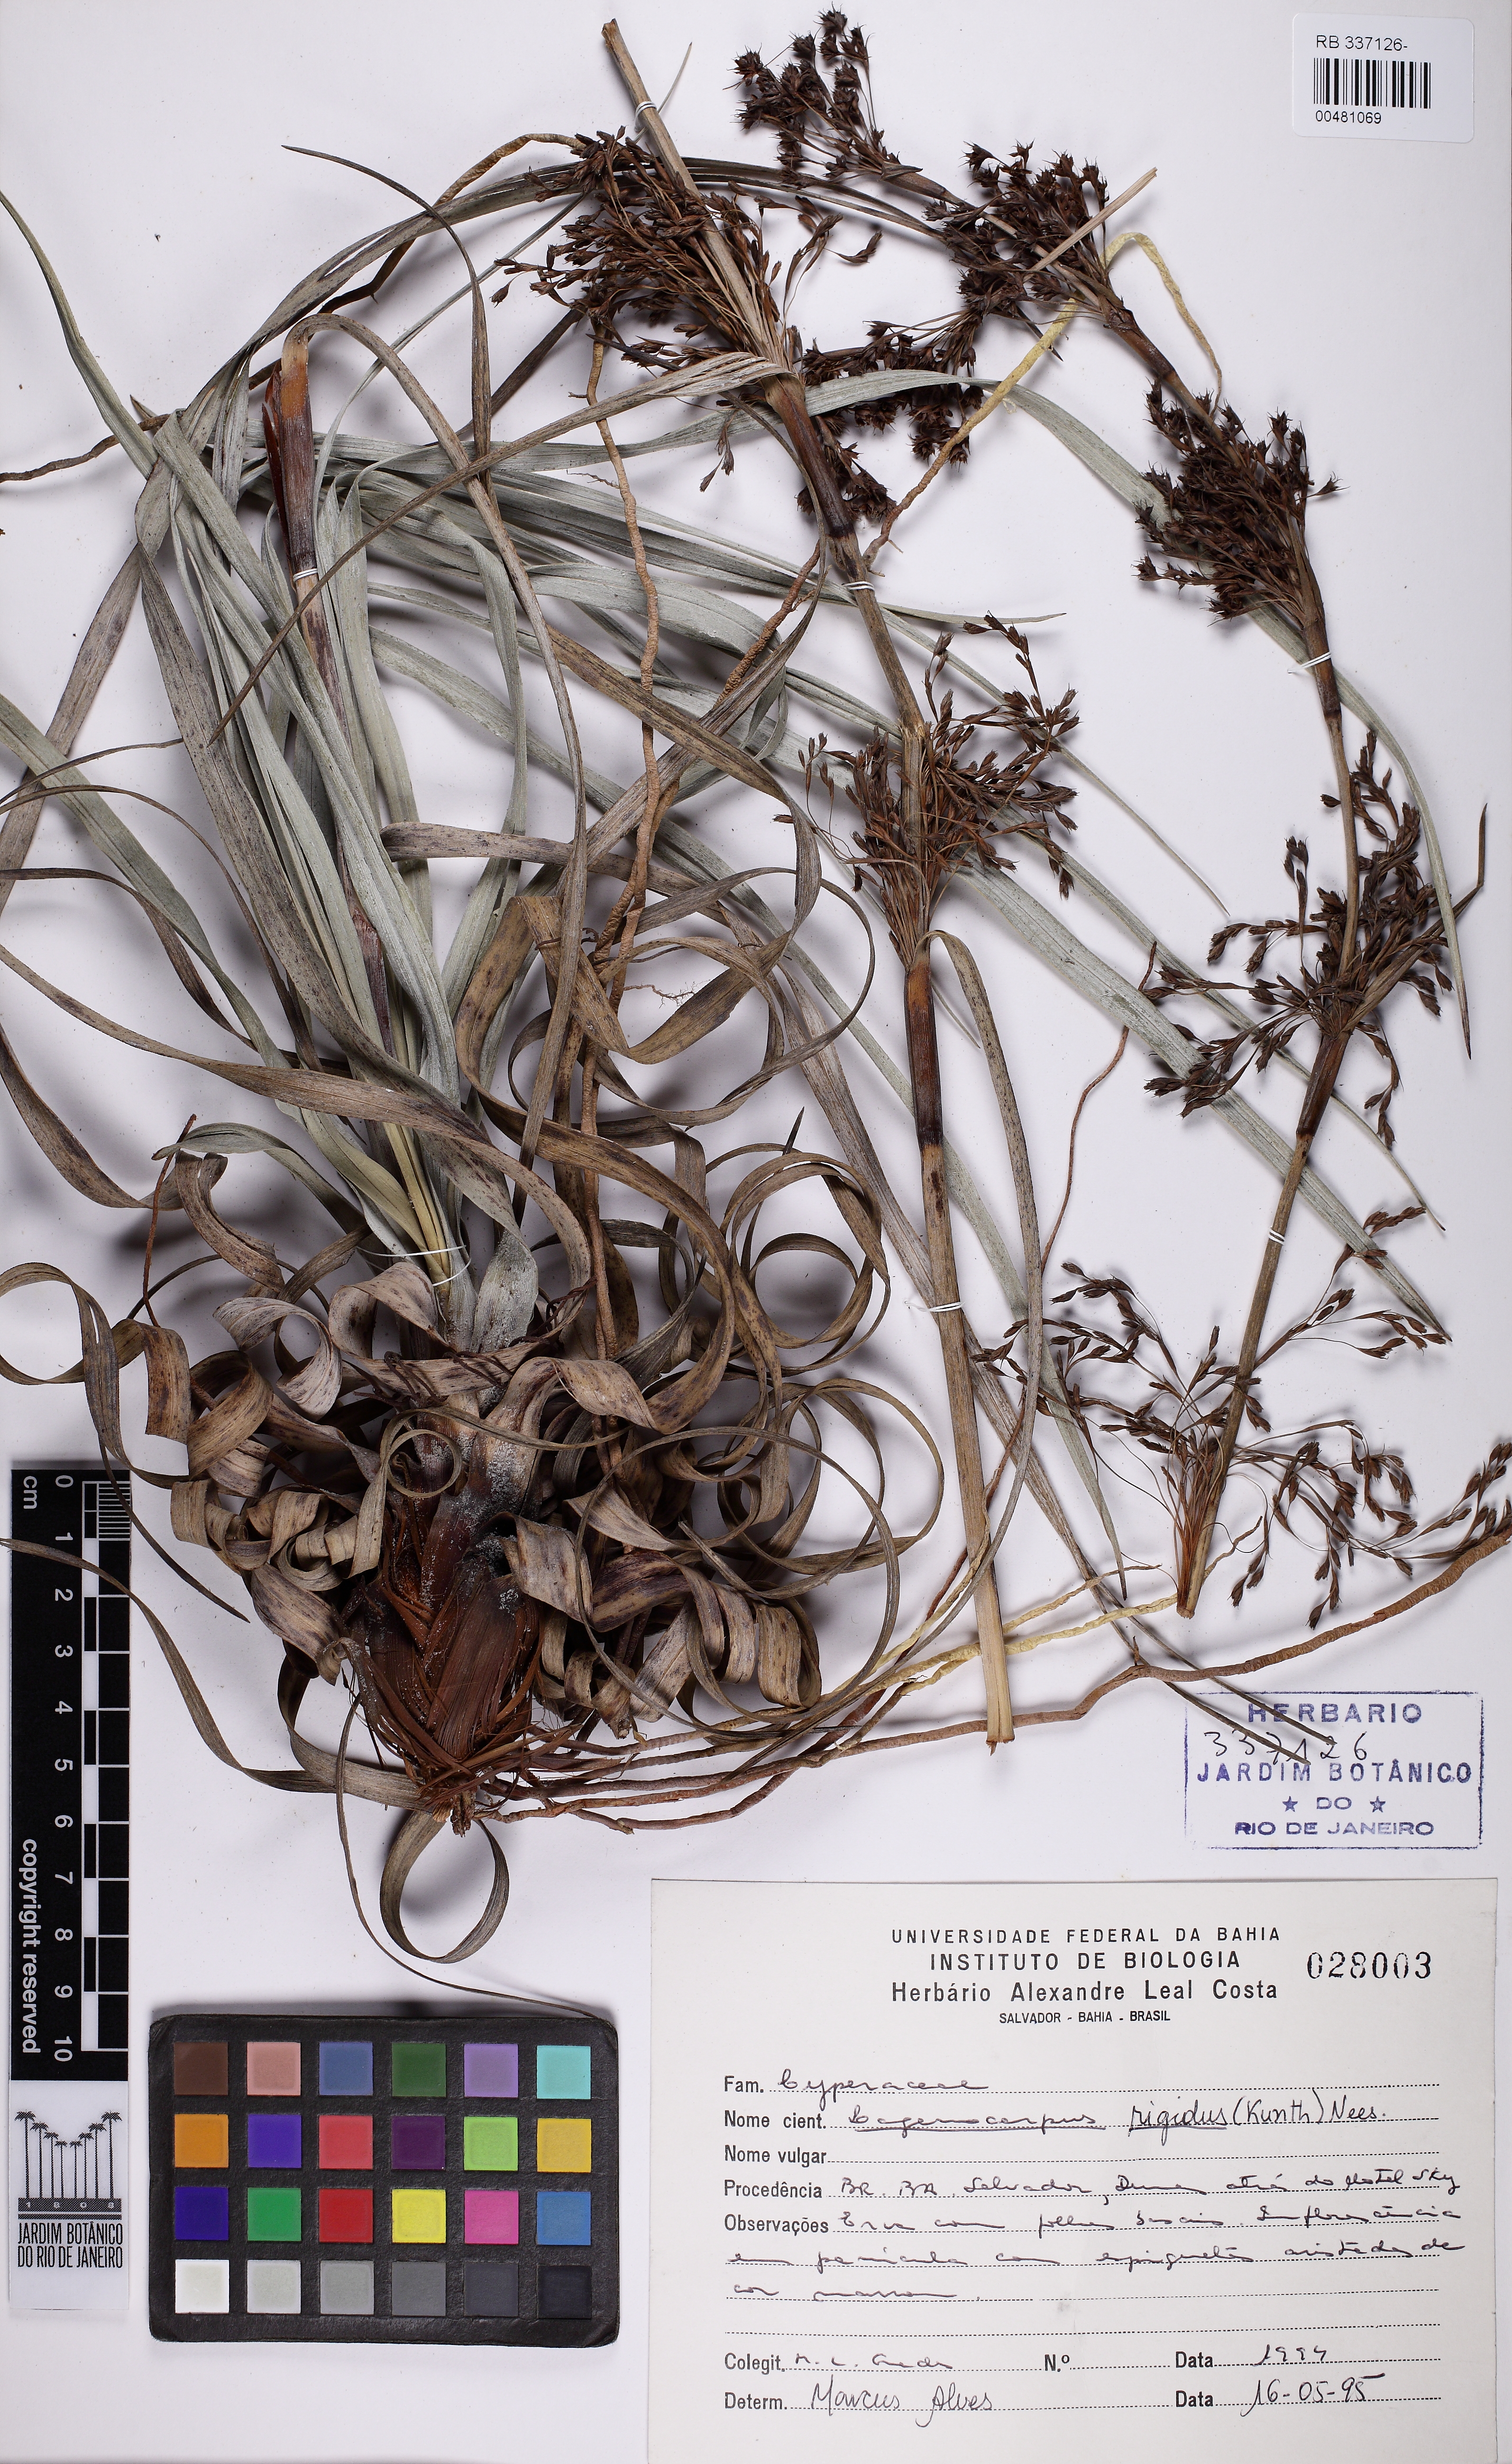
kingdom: Plantae
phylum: Tracheophyta
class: Liliopsida
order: Poales
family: Cyperaceae
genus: Lagenocarpus
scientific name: Lagenocarpus rigidus
